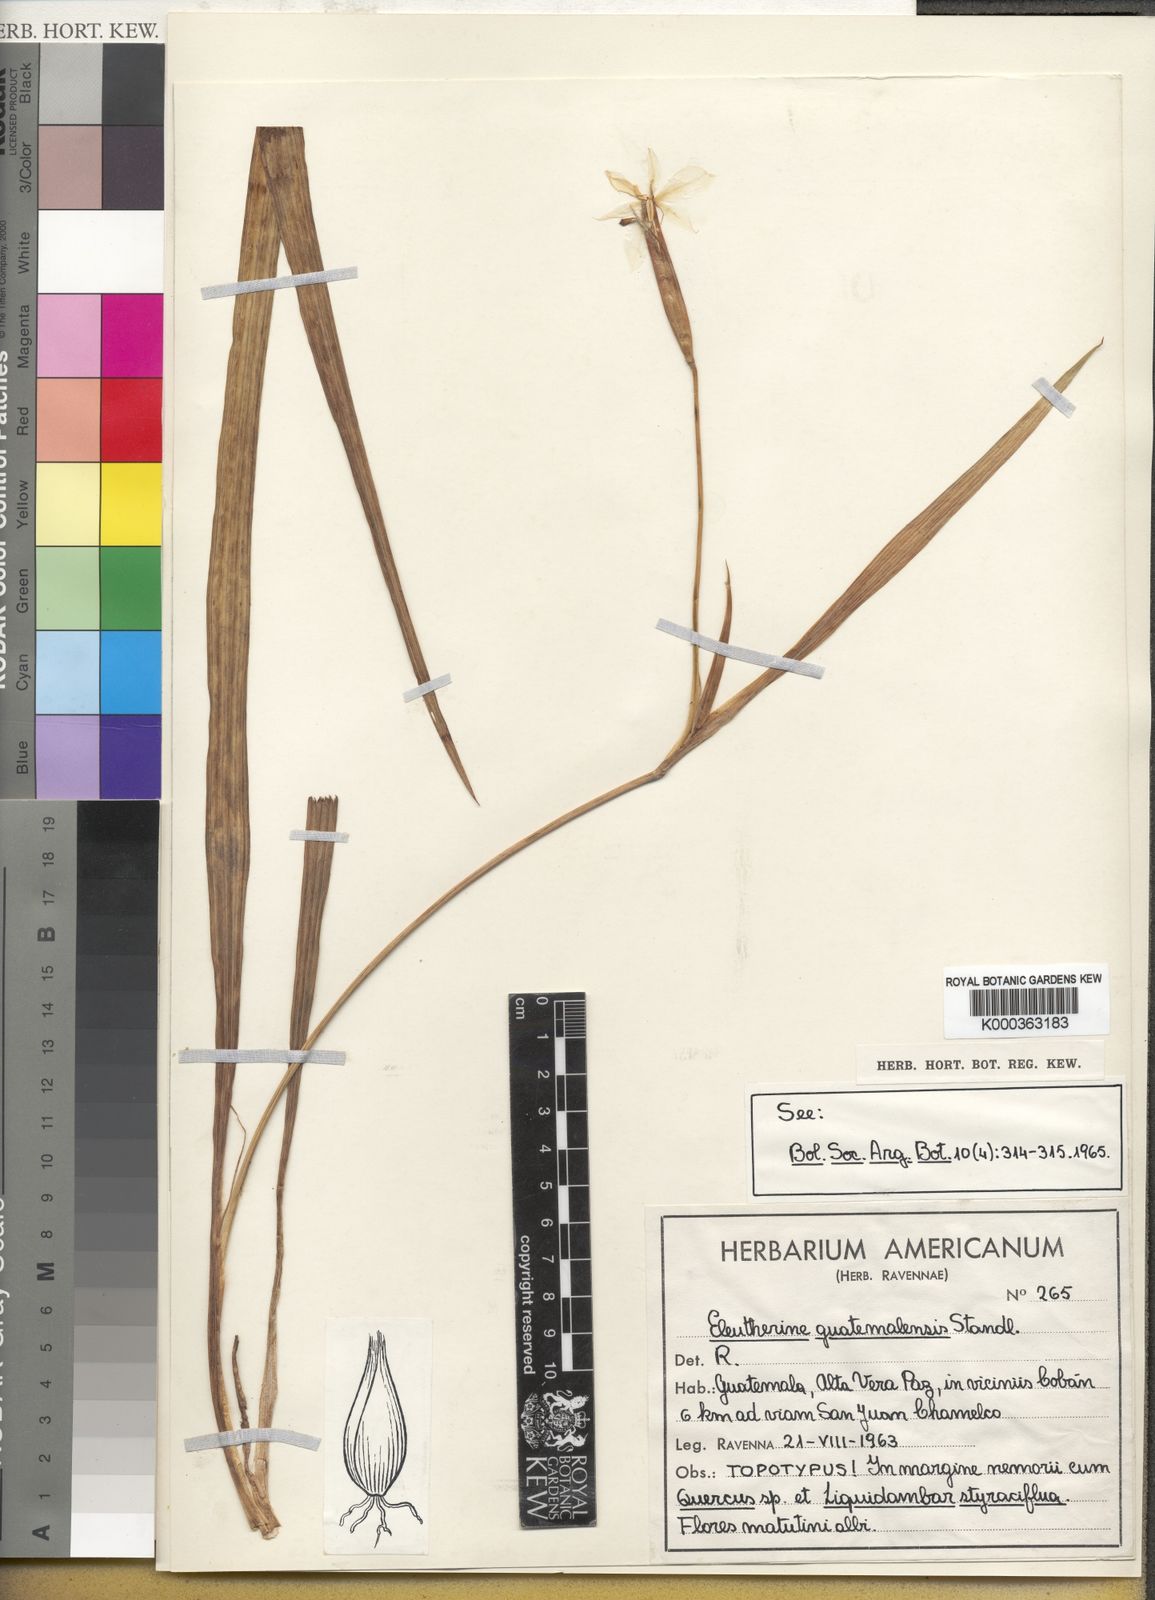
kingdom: Plantae
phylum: Tracheophyta
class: Liliopsida
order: Asparagales
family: Iridaceae
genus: Cobana
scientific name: Cobana guatemalensis
